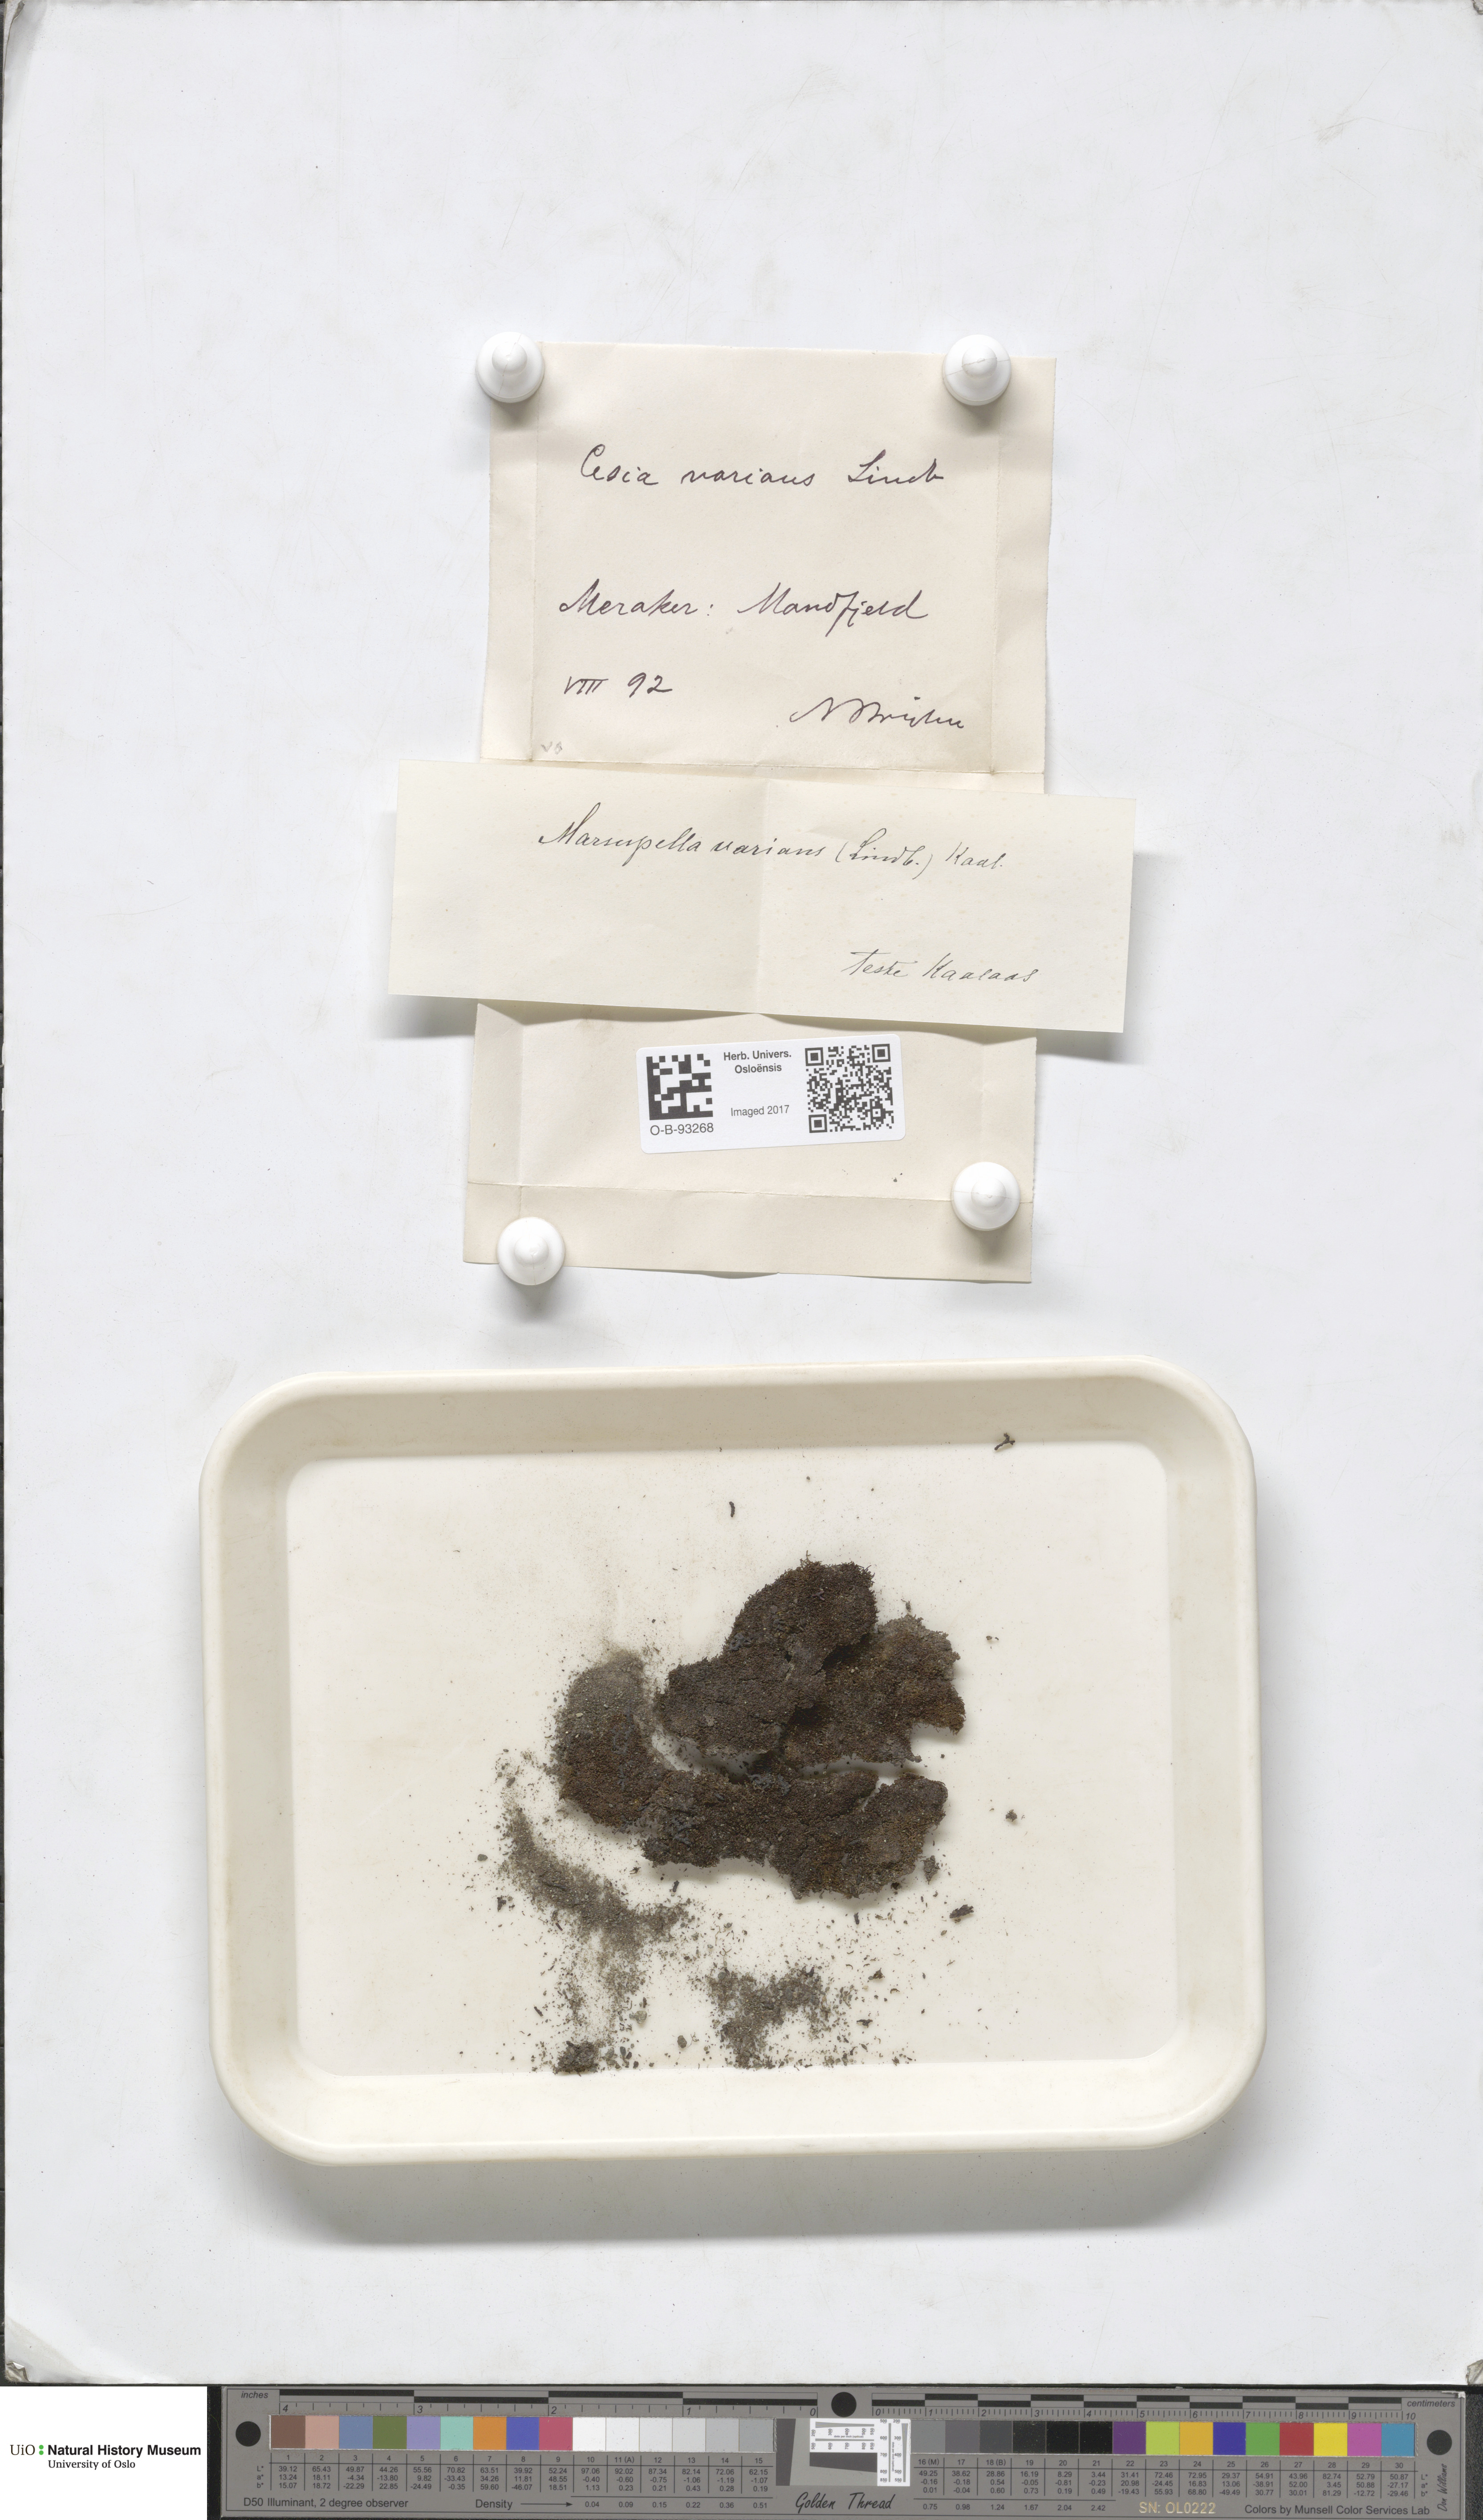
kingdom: Plantae
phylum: Marchantiophyta
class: Jungermanniopsida
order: Jungermanniales
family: Gymnomitriaceae
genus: Gymnomitrion
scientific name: Gymnomitrion brevissimum
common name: Snow rustwort
